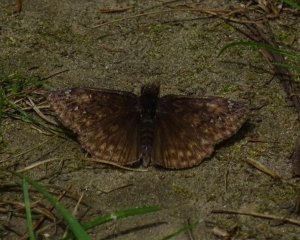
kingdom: Animalia
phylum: Arthropoda
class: Insecta
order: Lepidoptera
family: Hesperiidae
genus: Gesta
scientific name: Gesta
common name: Juvenal's Duskywing
